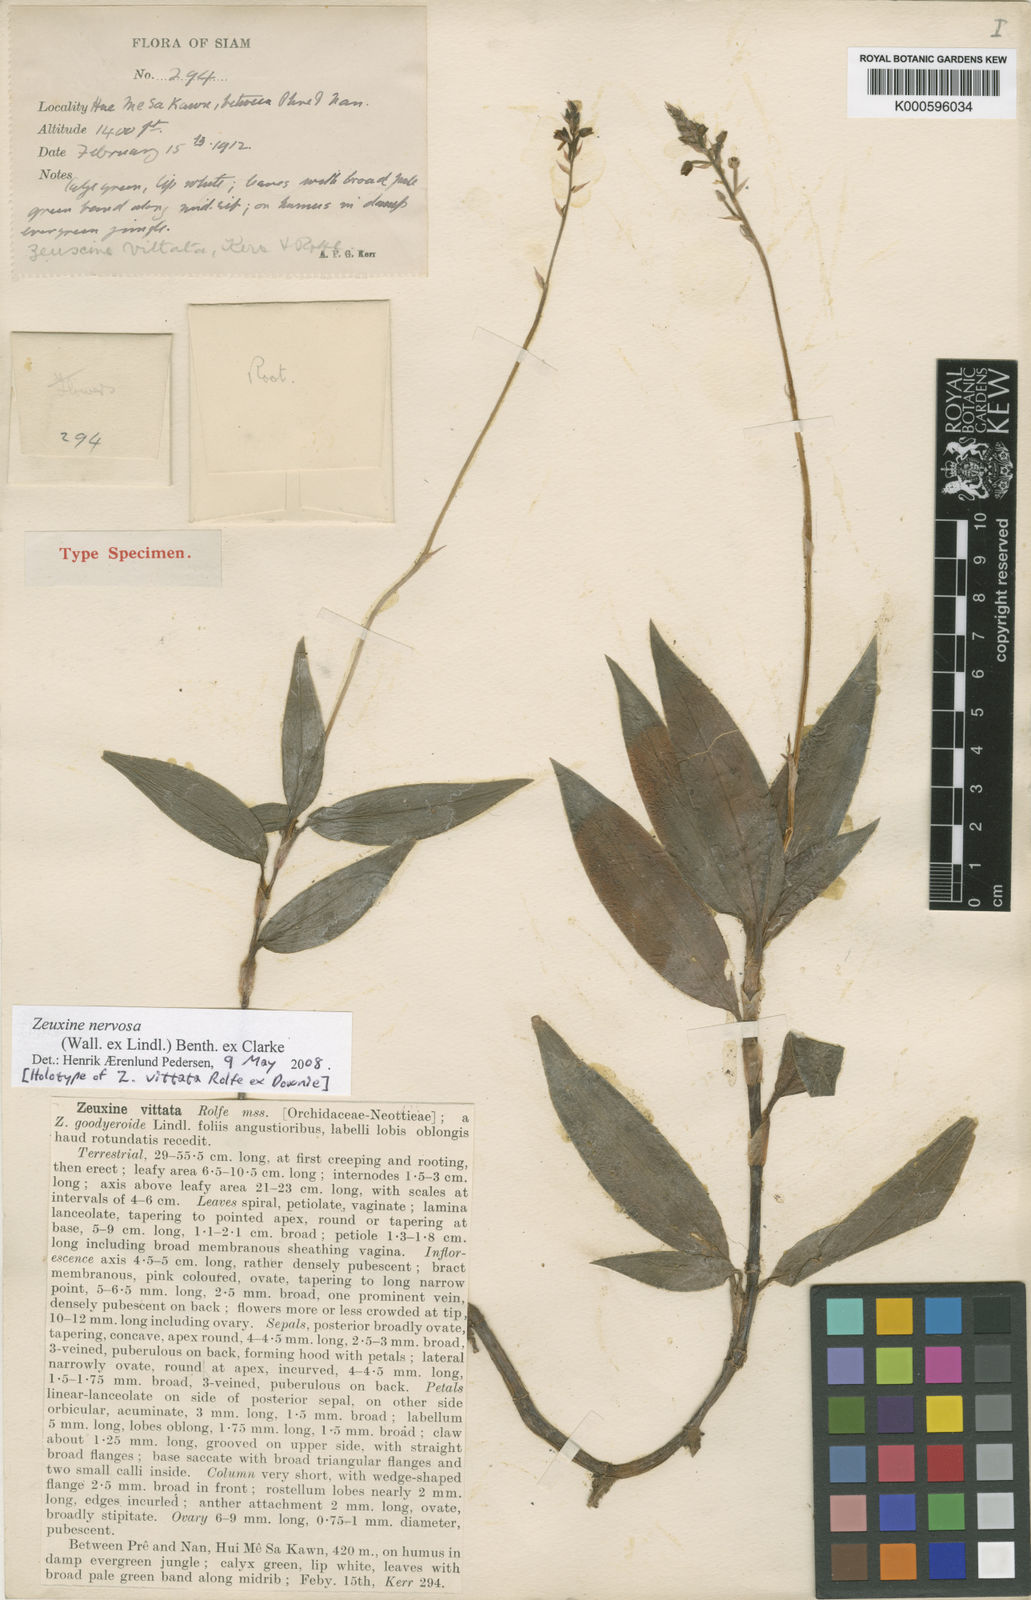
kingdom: Plantae
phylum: Tracheophyta
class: Liliopsida
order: Asparagales
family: Orchidaceae
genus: Zeuxine
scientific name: Zeuxine
